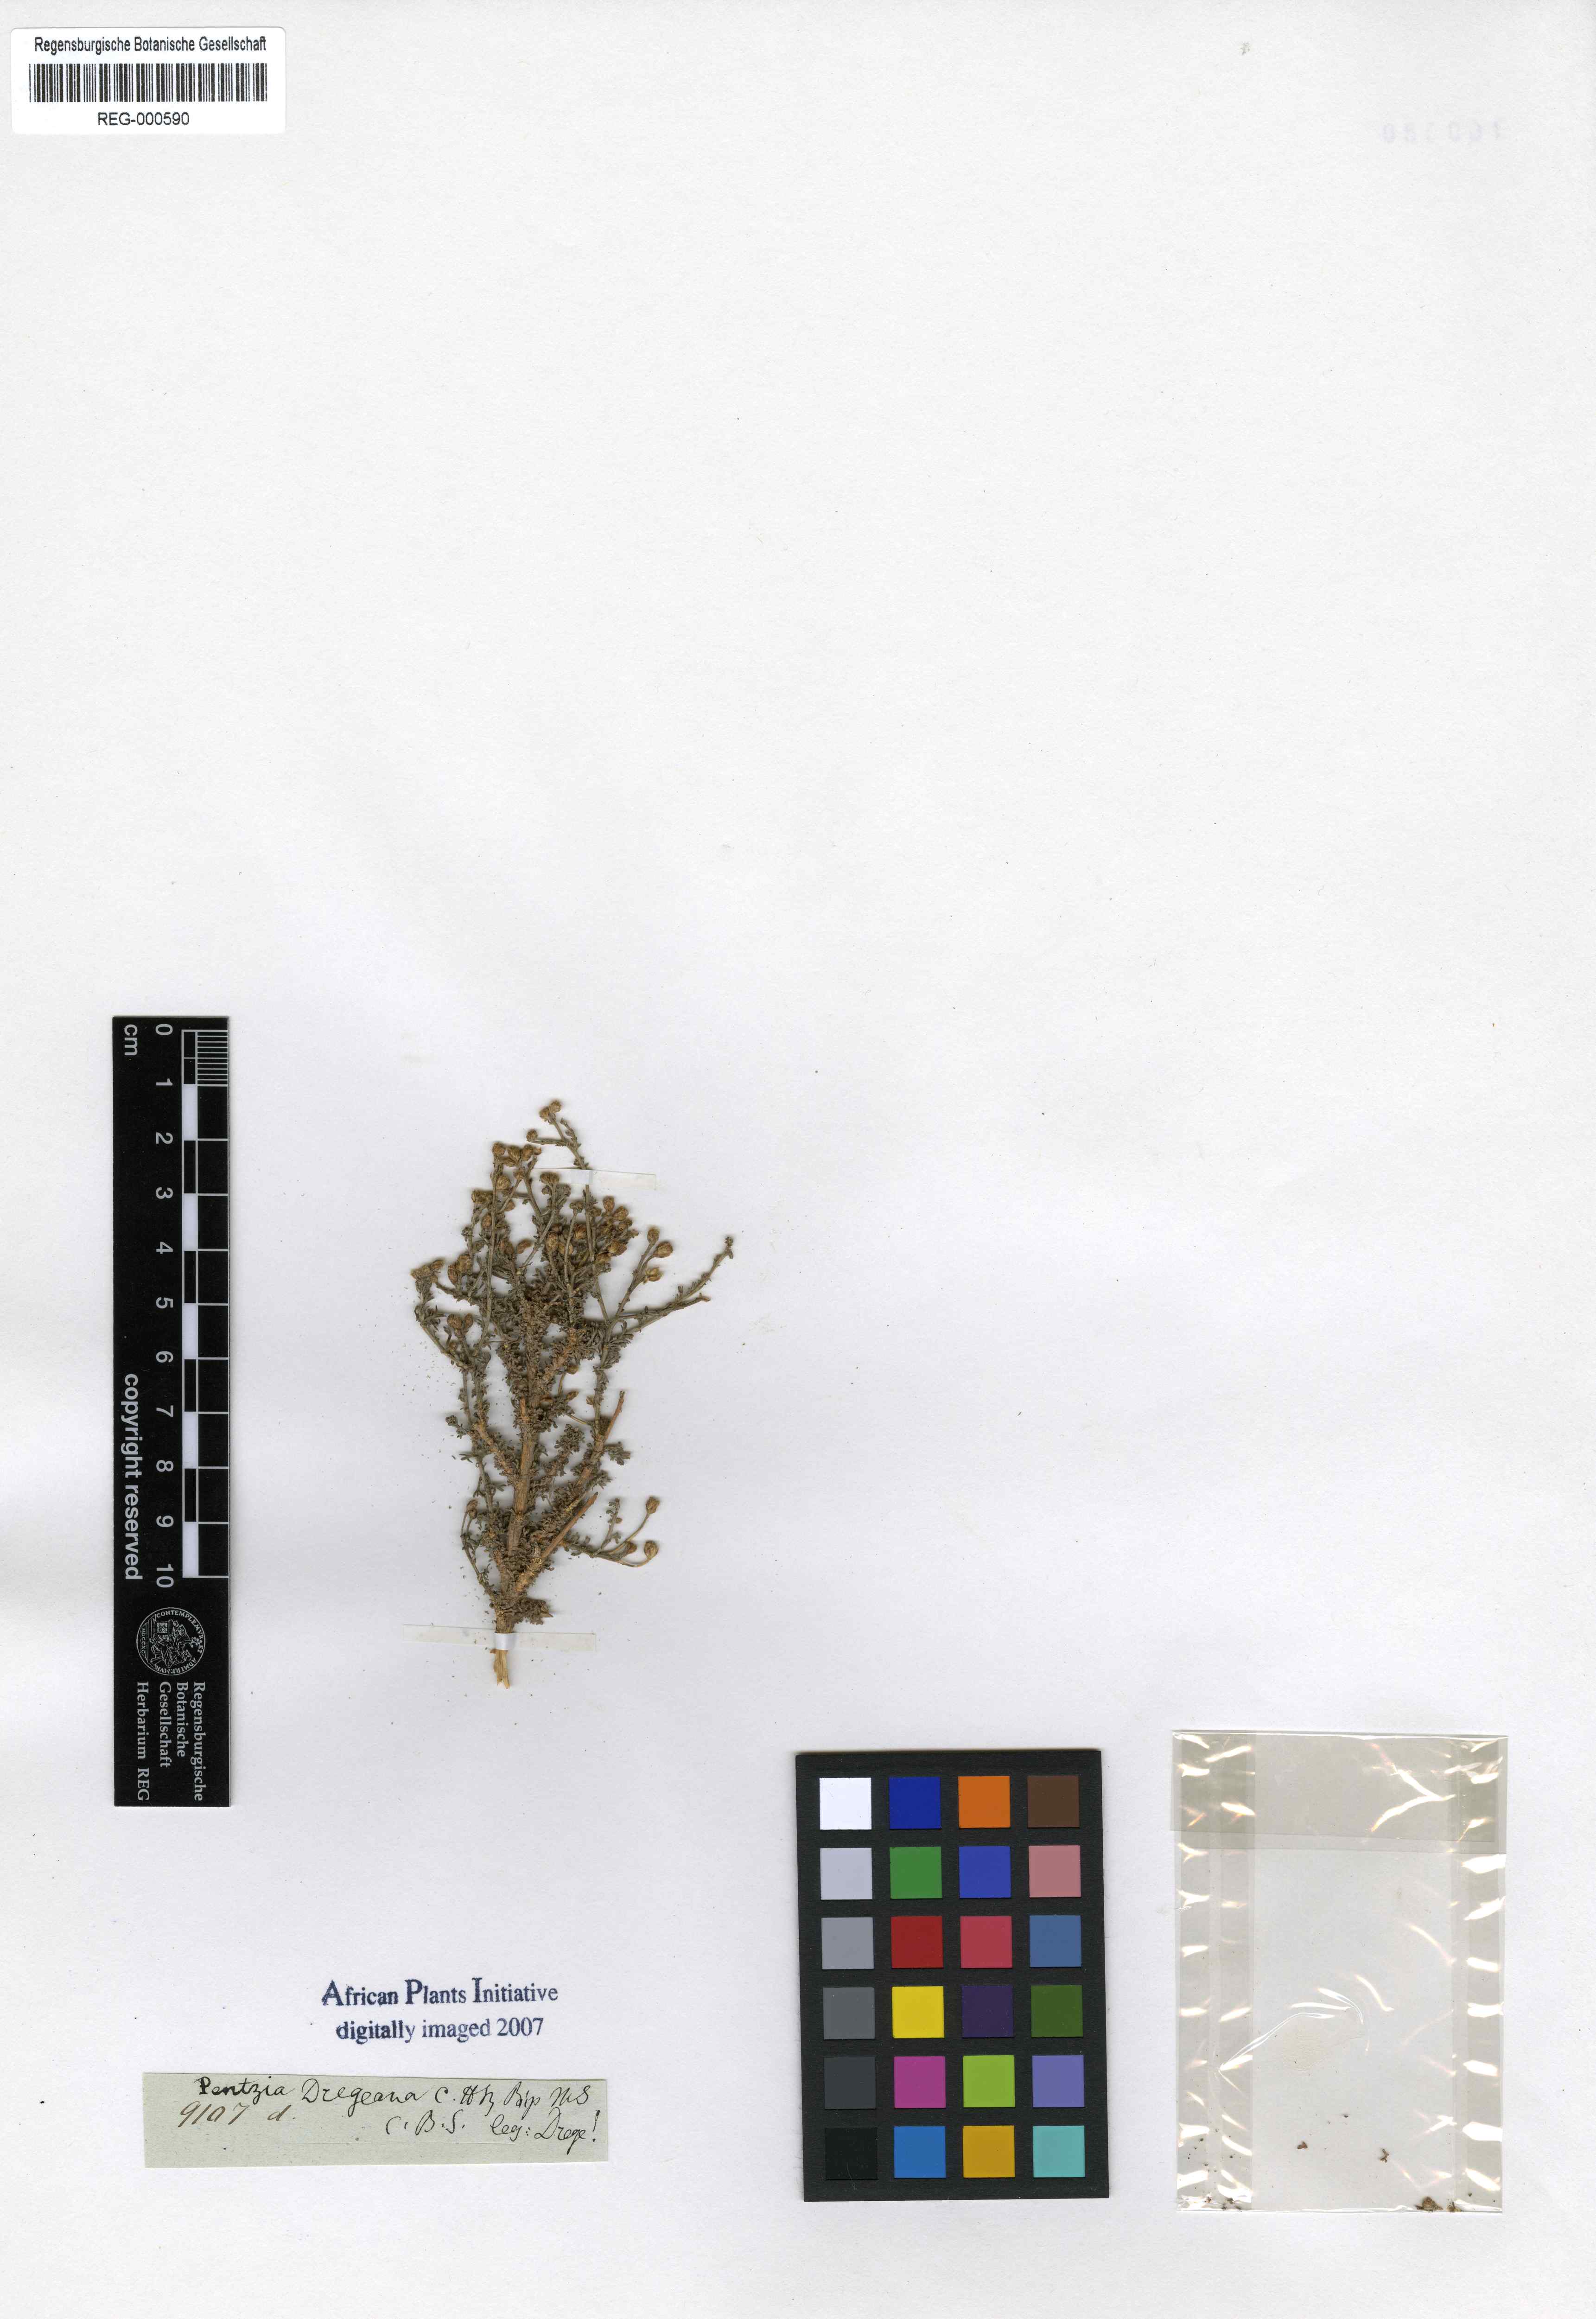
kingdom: Plantae
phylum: Tracheophyta
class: Magnoliopsida
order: Asterales
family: Asteraceae
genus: Pentzia
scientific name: Pentzia
